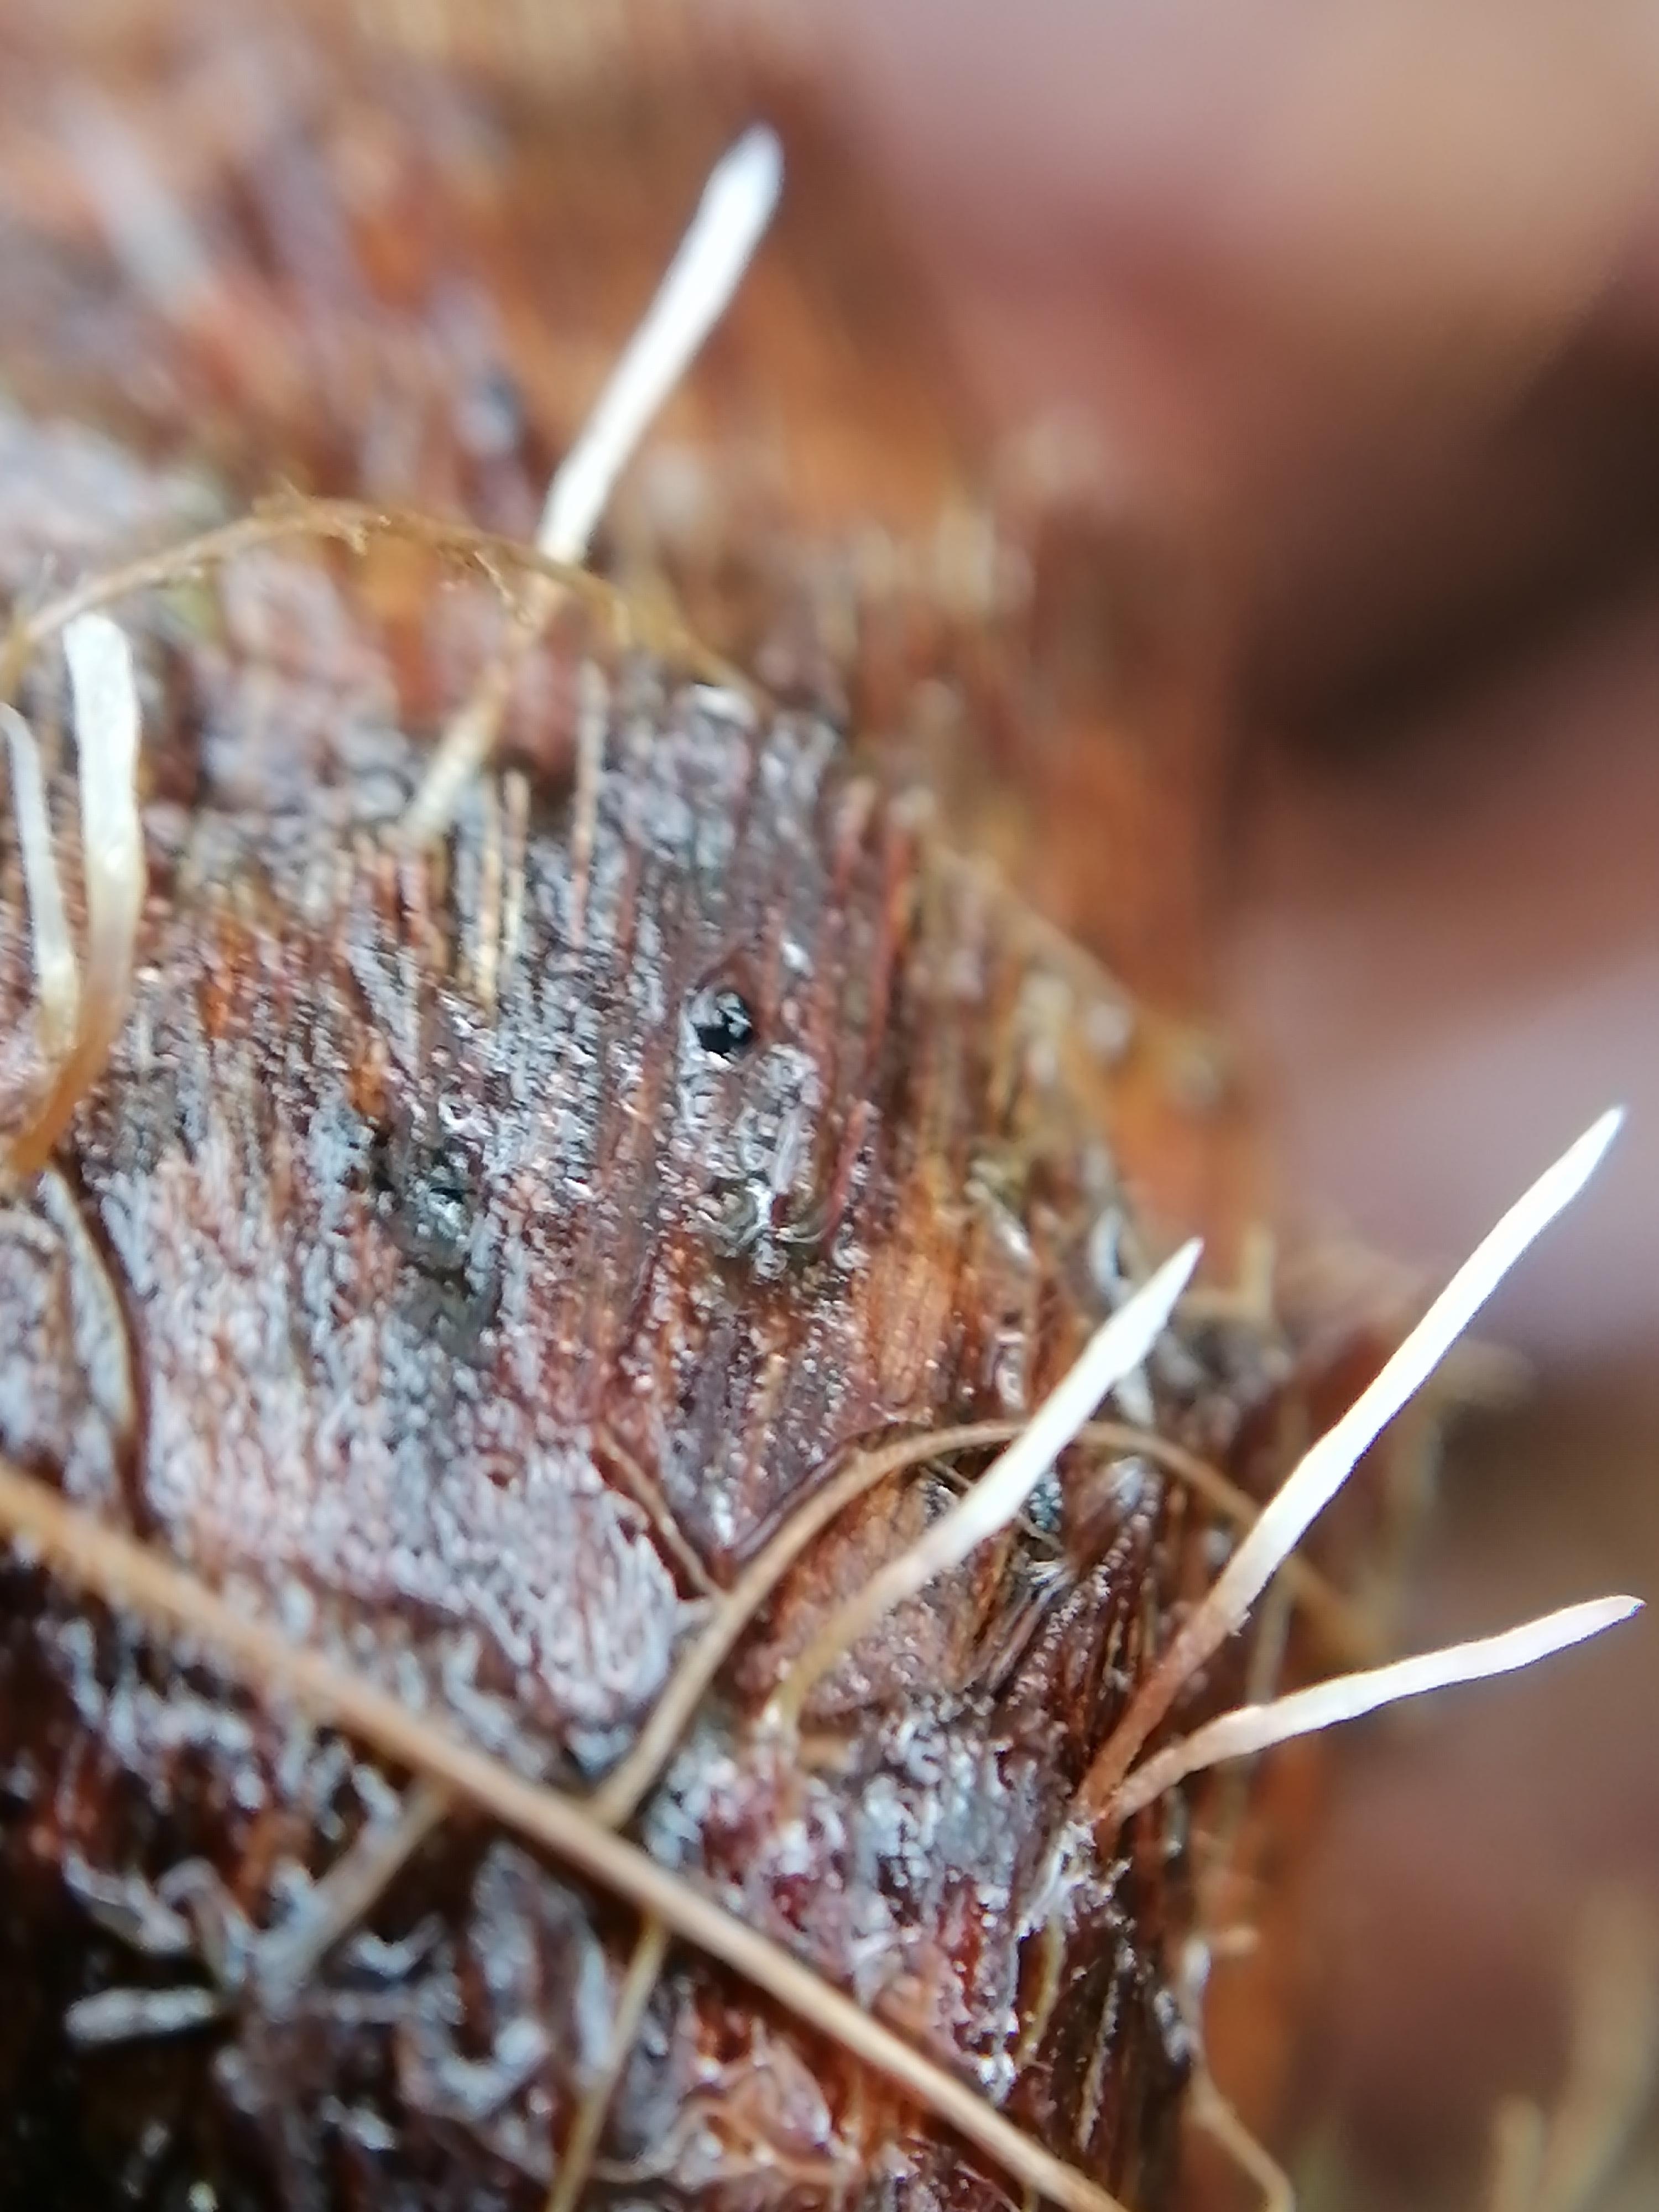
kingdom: Fungi
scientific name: Fungi
